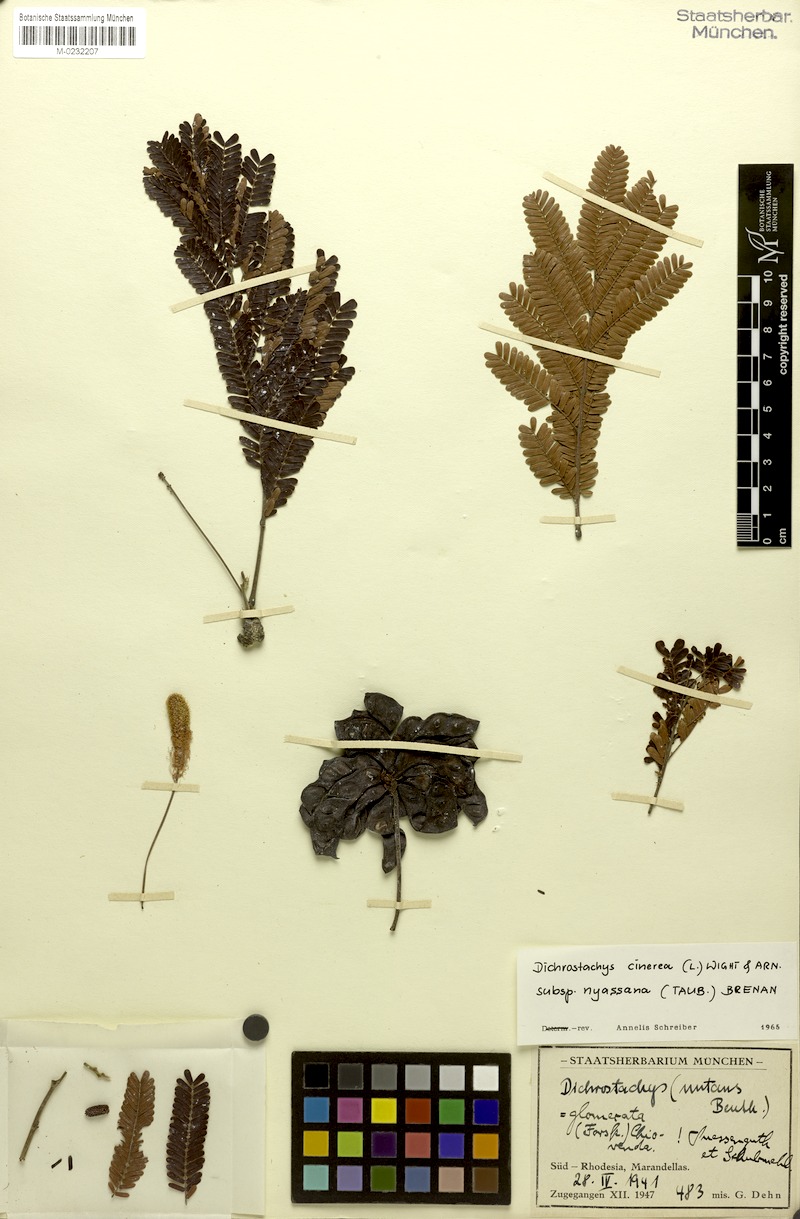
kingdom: Plantae
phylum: Tracheophyta
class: Magnoliopsida
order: Fabales
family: Fabaceae
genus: Dichrostachys
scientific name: Dichrostachys cinerea
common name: Sicklebush
